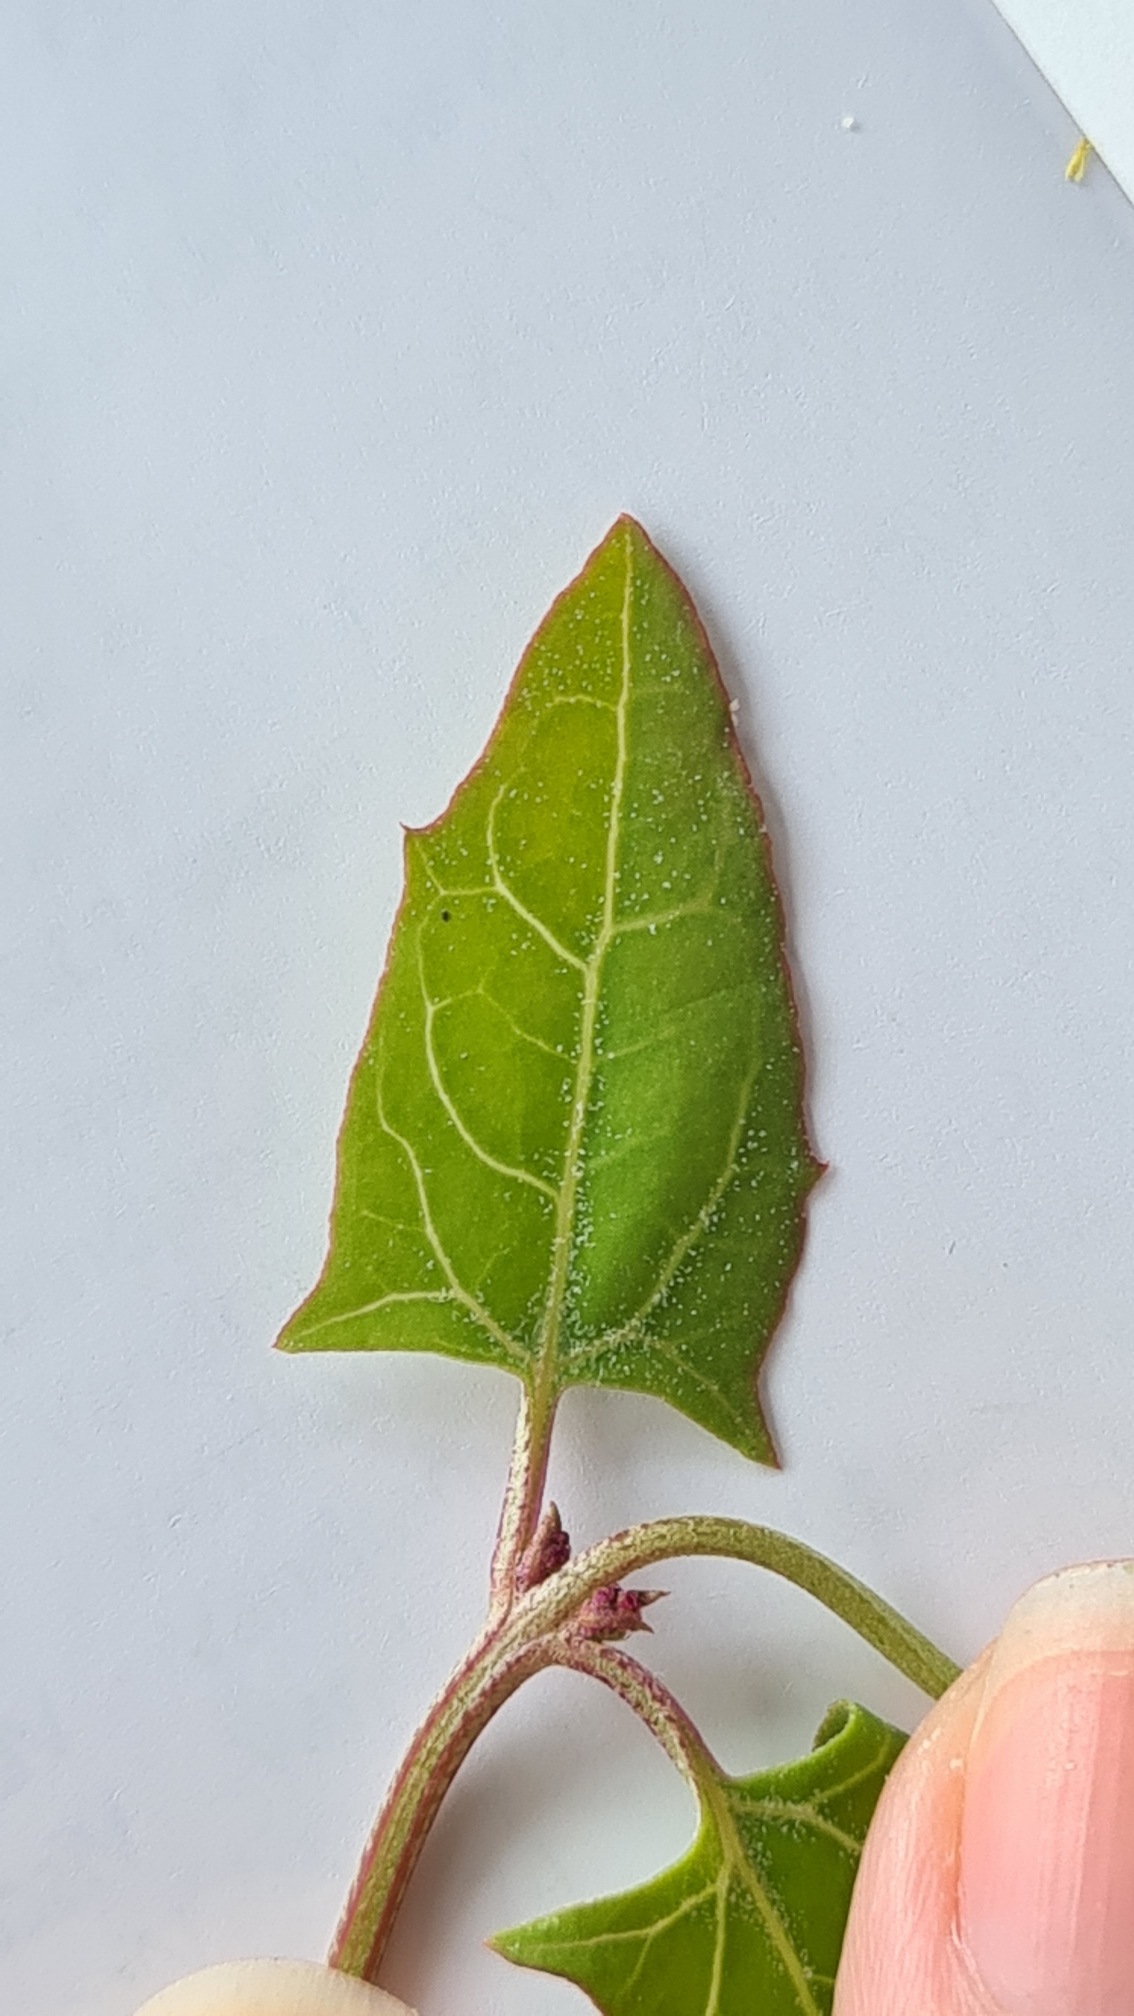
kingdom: Plantae
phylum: Tracheophyta
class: Magnoliopsida
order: Caryophyllales
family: Amaranthaceae
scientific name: Amaranthaceae
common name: Amarantfamilien
